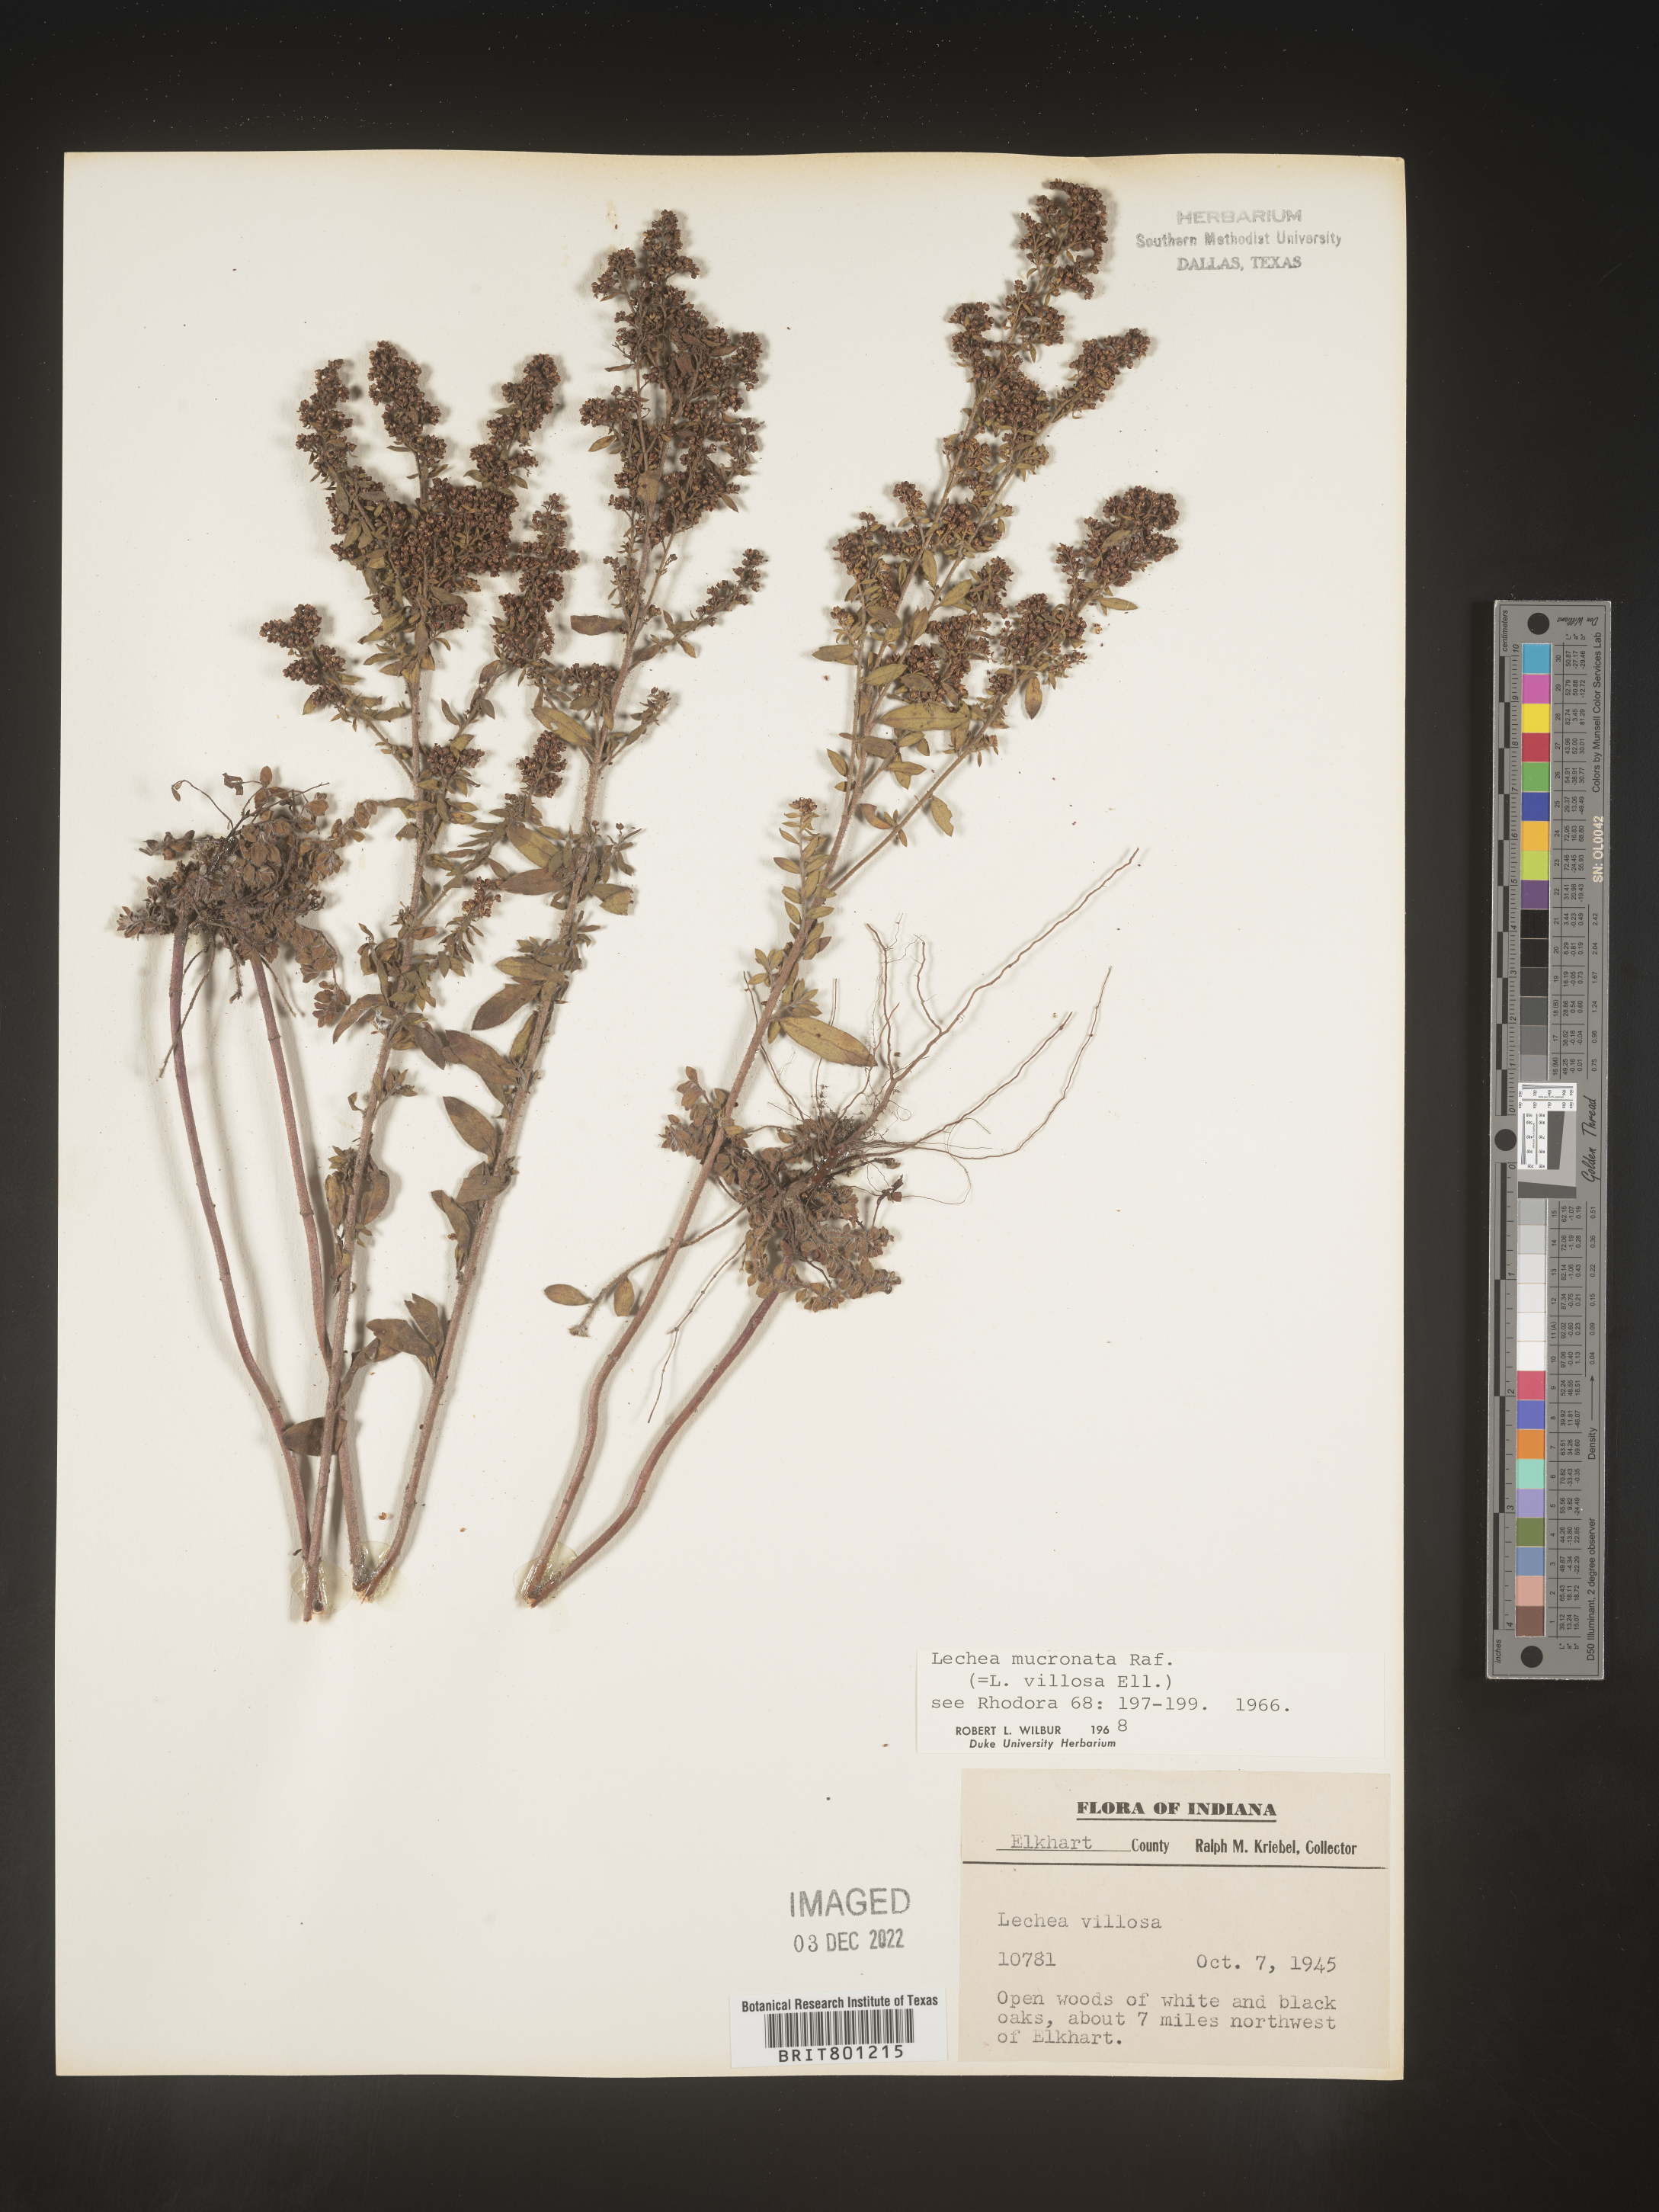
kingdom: Plantae
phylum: Tracheophyta
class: Magnoliopsida
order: Malvales
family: Cistaceae
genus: Lechea
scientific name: Lechea mucronata
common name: Hairy pinweed
